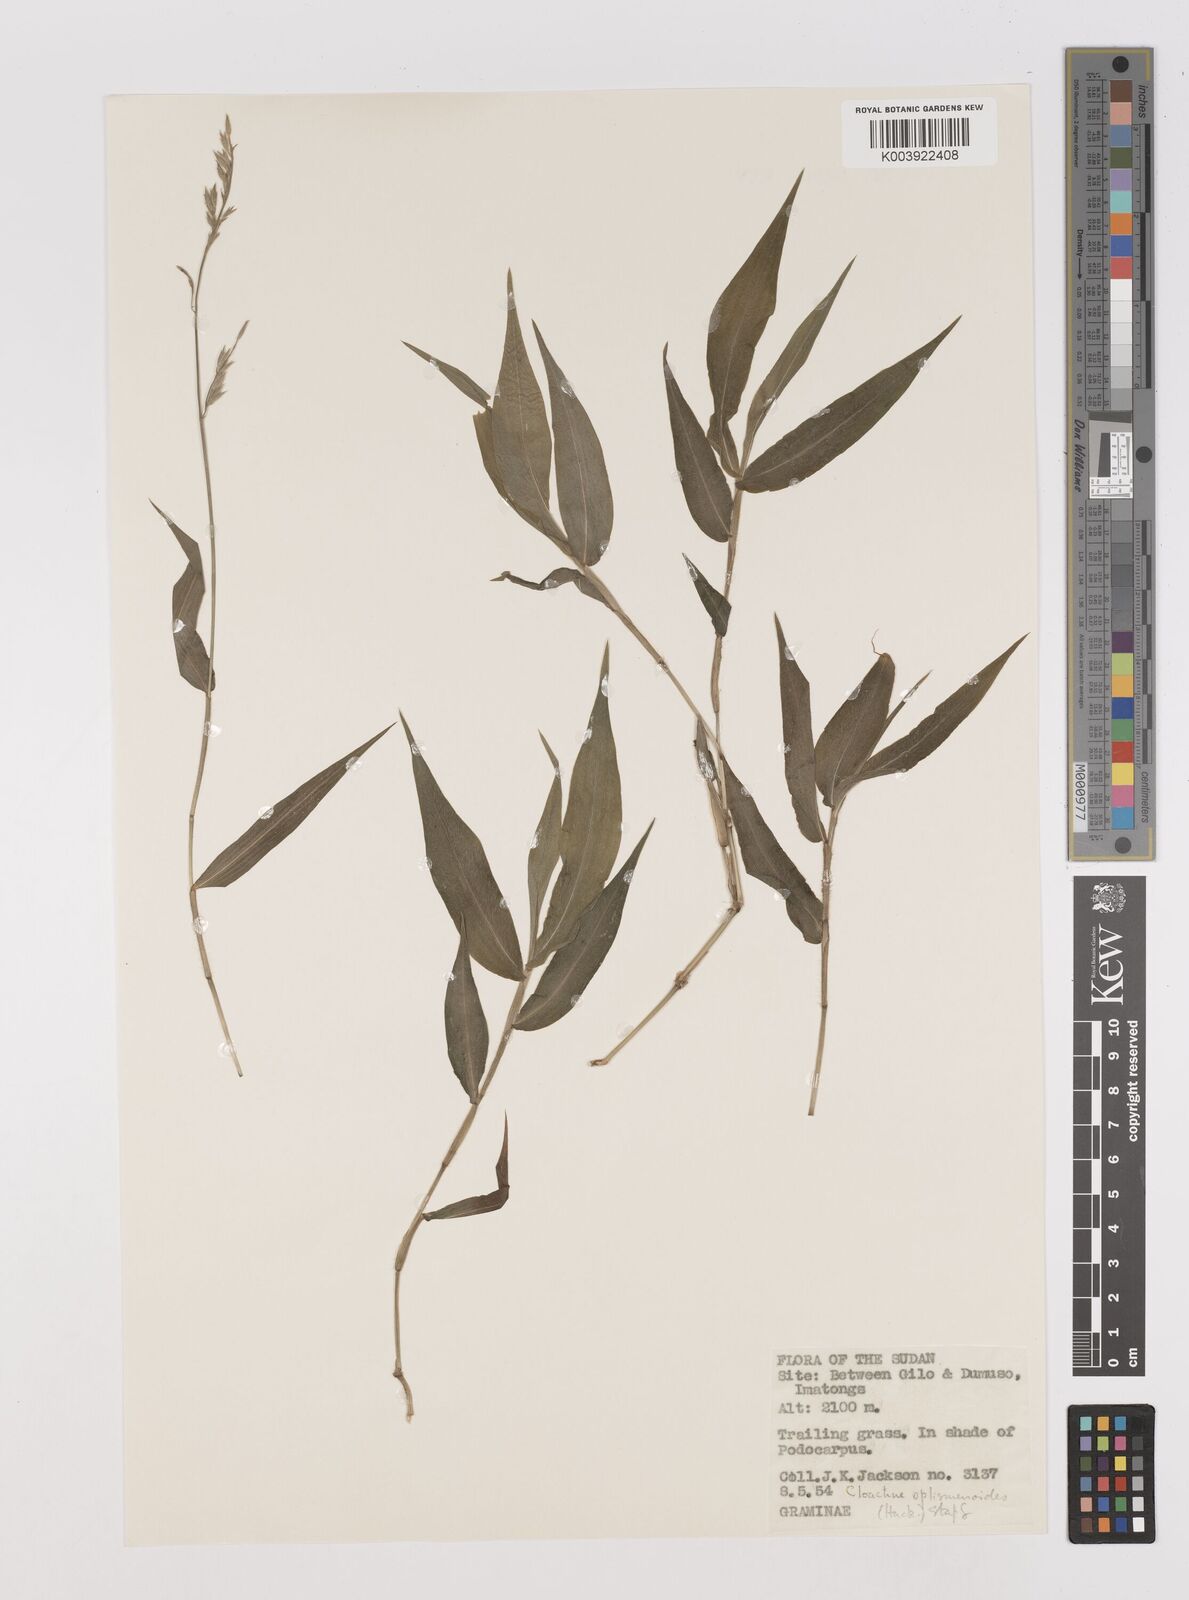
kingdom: Plantae
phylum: Tracheophyta
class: Liliopsida
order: Poales
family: Poaceae
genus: Poecilostachys
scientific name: Poecilostachys oplismenoides
